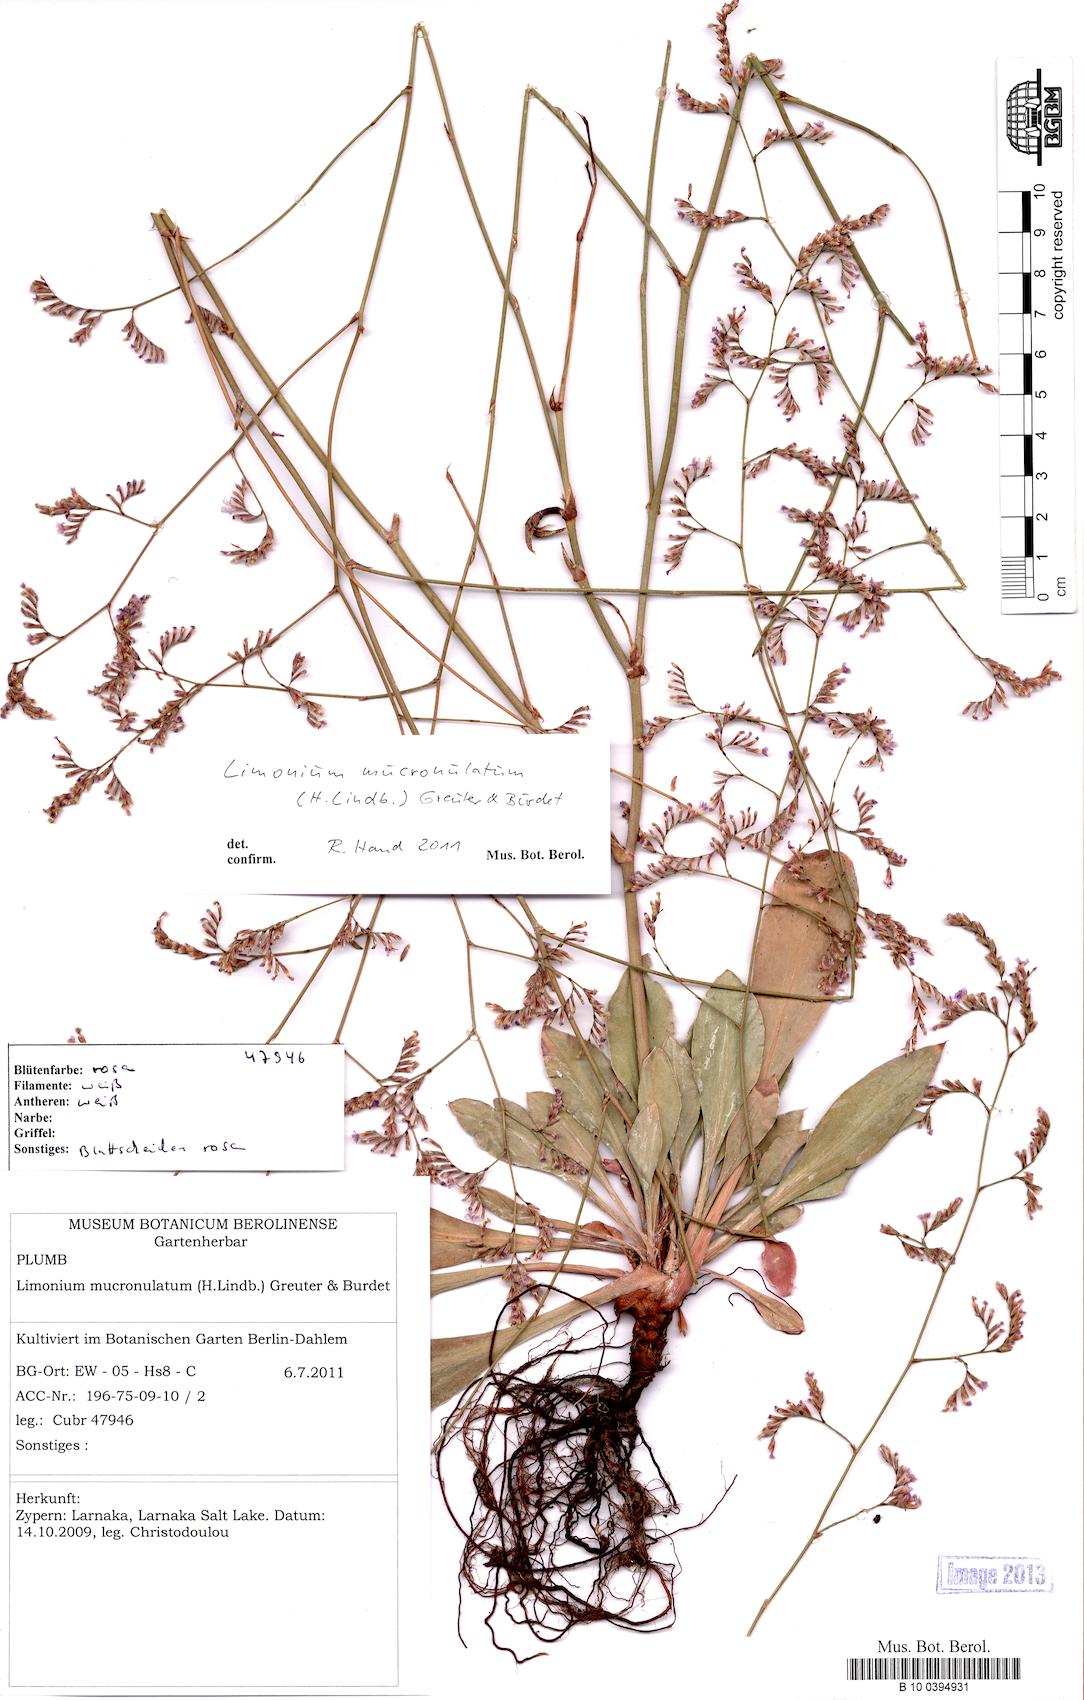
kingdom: Plantae
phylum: Tracheophyta
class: Magnoliopsida
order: Caryophyllales
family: Plumbaginaceae
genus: Limonium
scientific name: Limonium mucronatum
